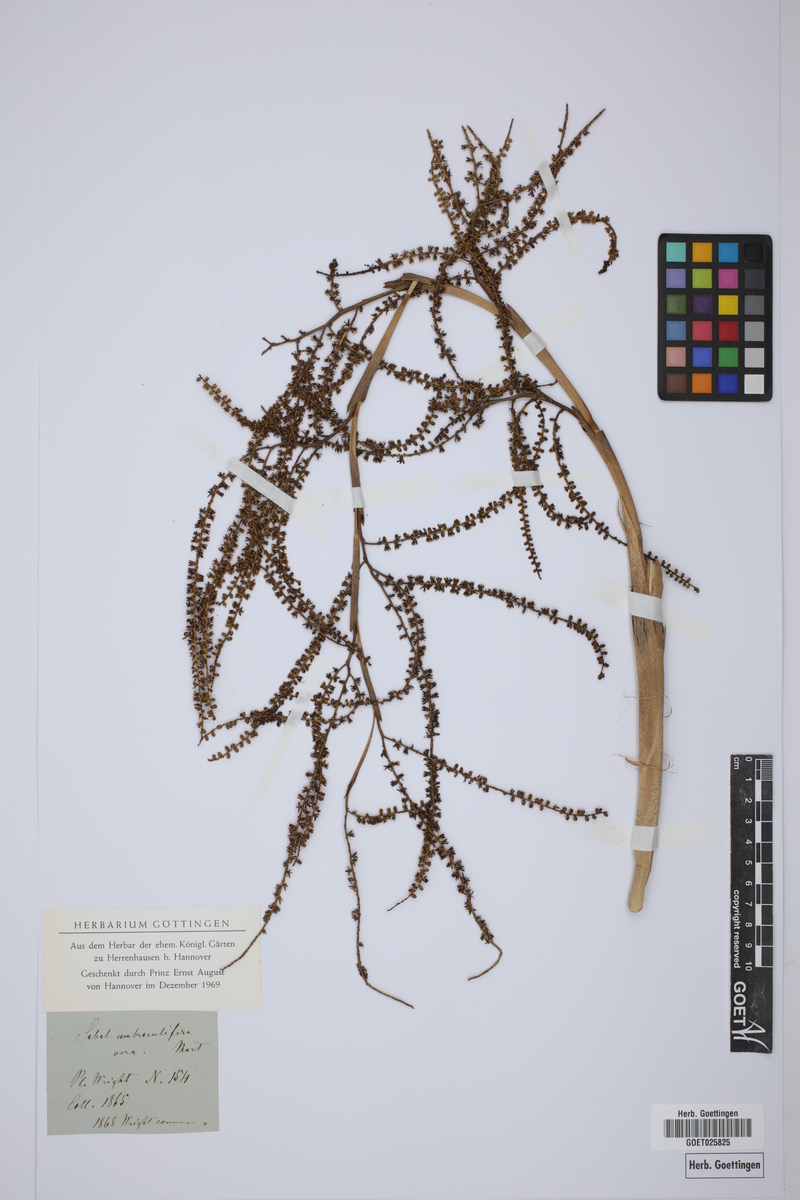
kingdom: Plantae
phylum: Tracheophyta
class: Liliopsida
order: Arecales
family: Arecaceae
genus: Sabal
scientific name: Sabal palmetto
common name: Blue palmetto
